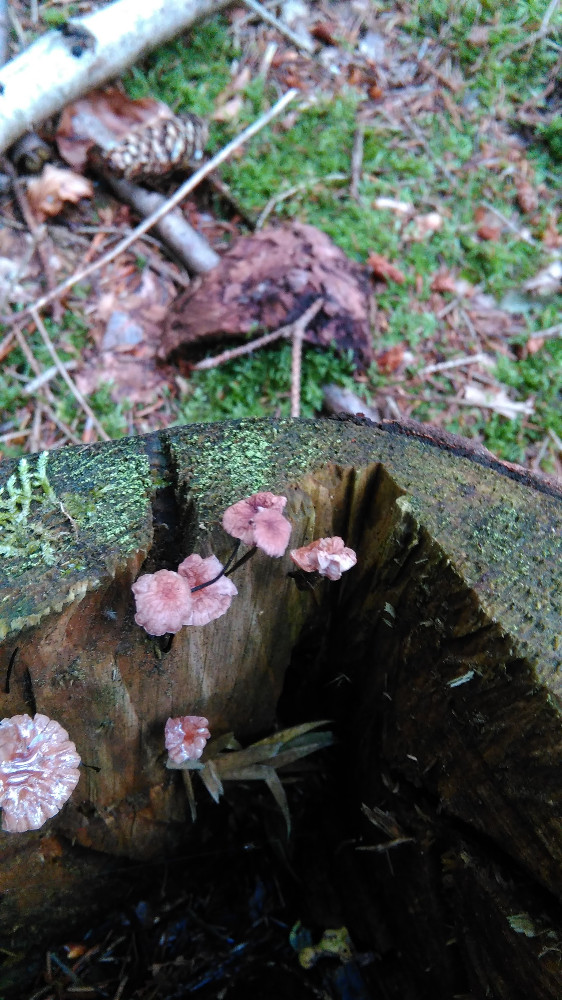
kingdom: Fungi
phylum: Basidiomycota
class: Agaricomycetes
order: Agaricales
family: Omphalotaceae
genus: Gymnopus
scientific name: Gymnopus androsaceus
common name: trådstokket fladhat
